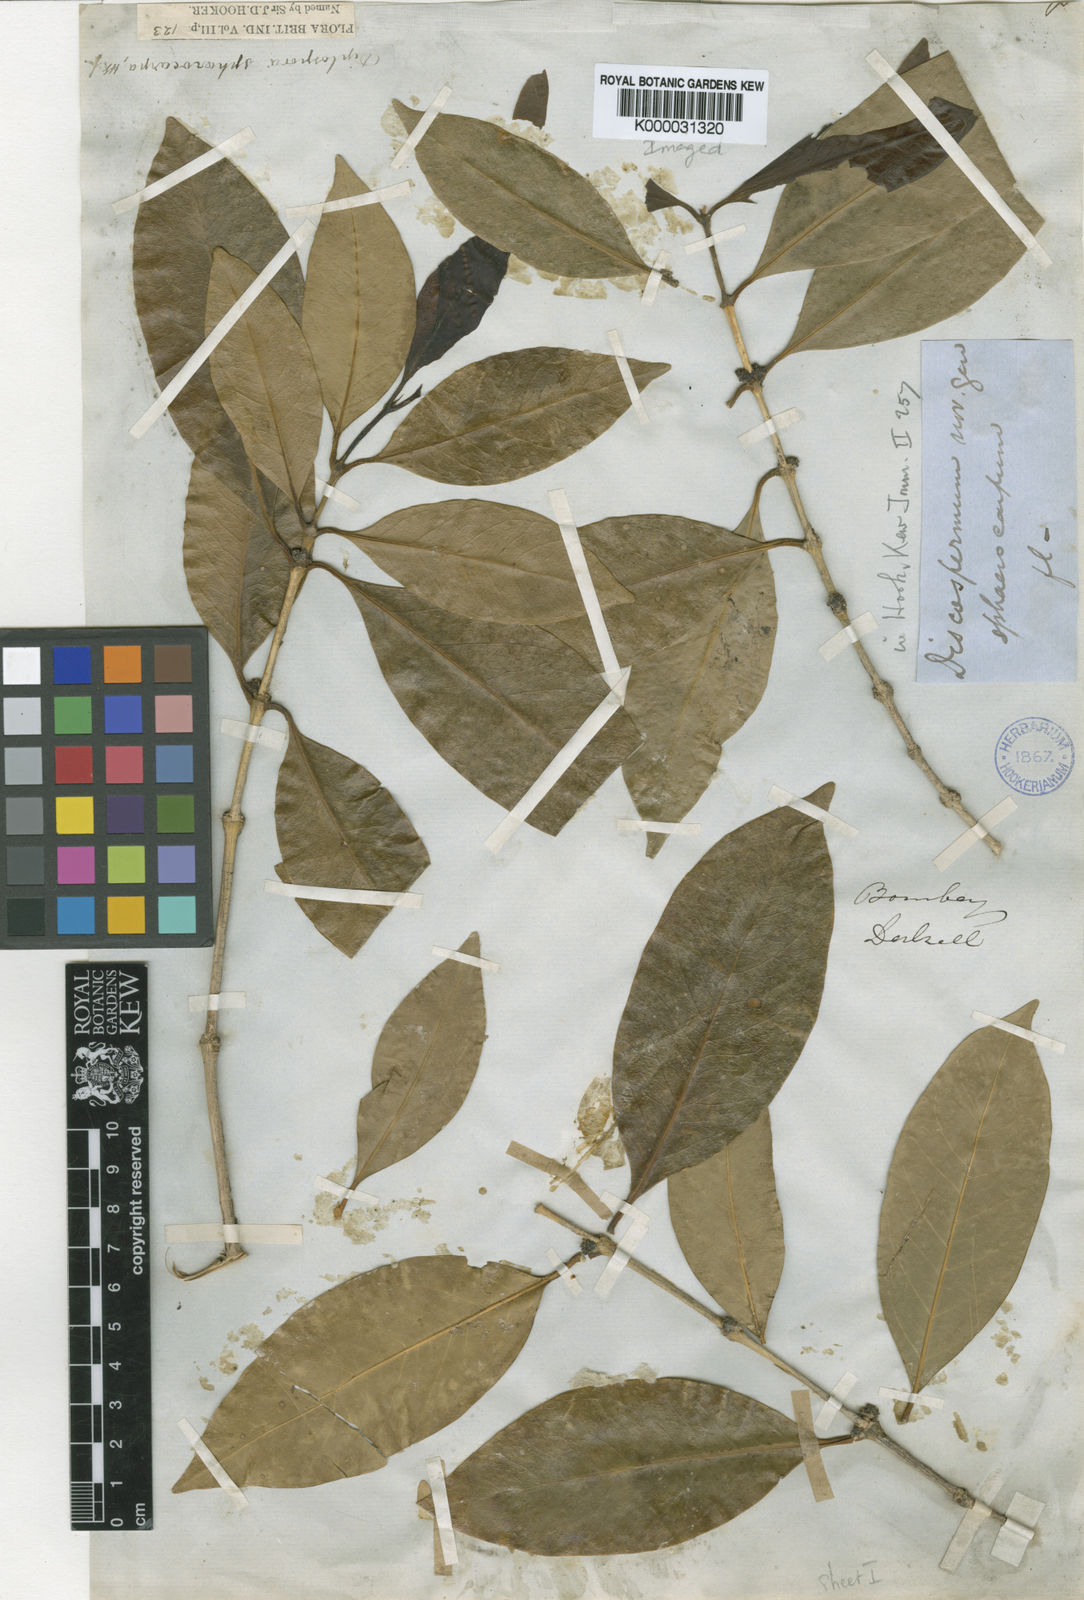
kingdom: Plantae
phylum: Tracheophyta
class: Magnoliopsida
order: Gentianales
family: Rubiaceae
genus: Discospermum
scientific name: Discospermum
